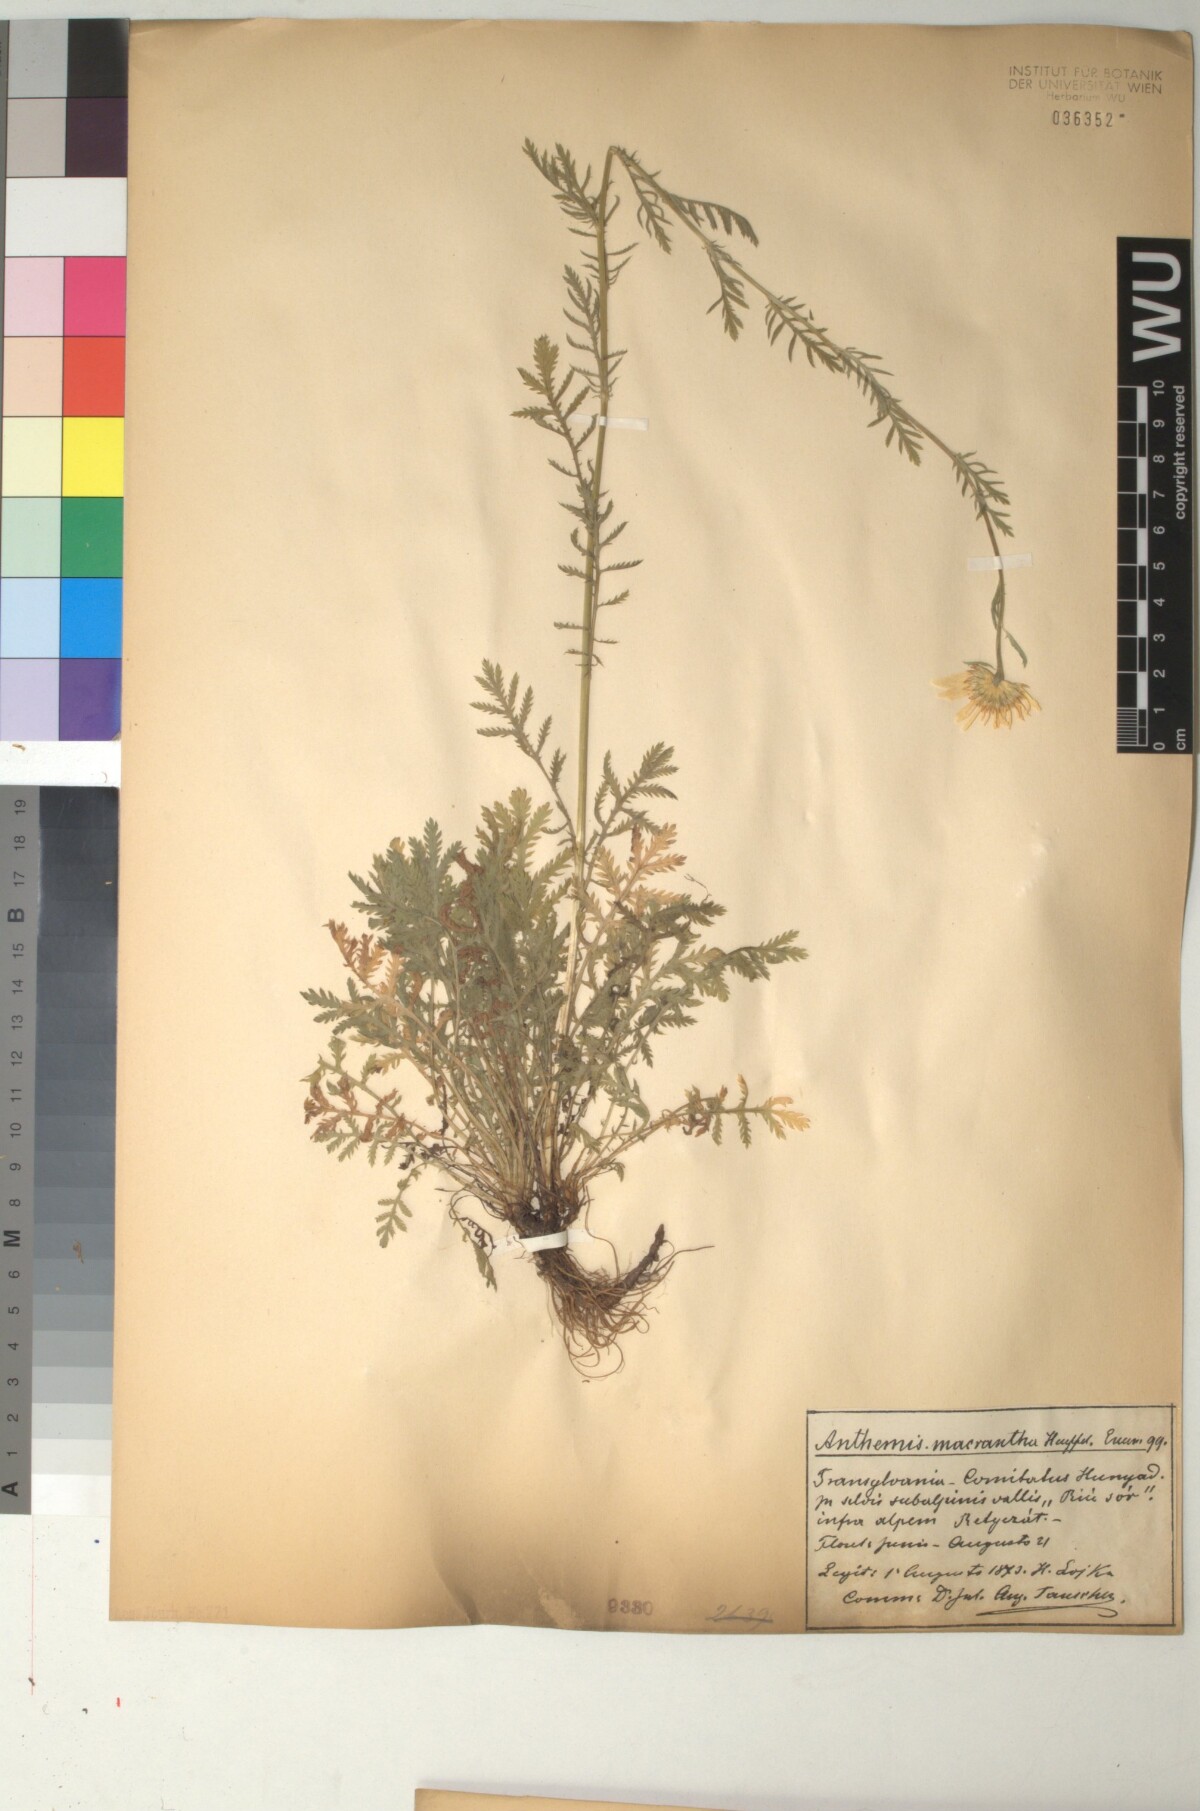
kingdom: Plantae
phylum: Tracheophyta
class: Magnoliopsida
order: Asterales
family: Asteraceae
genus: Cota
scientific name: Cota macrantha
